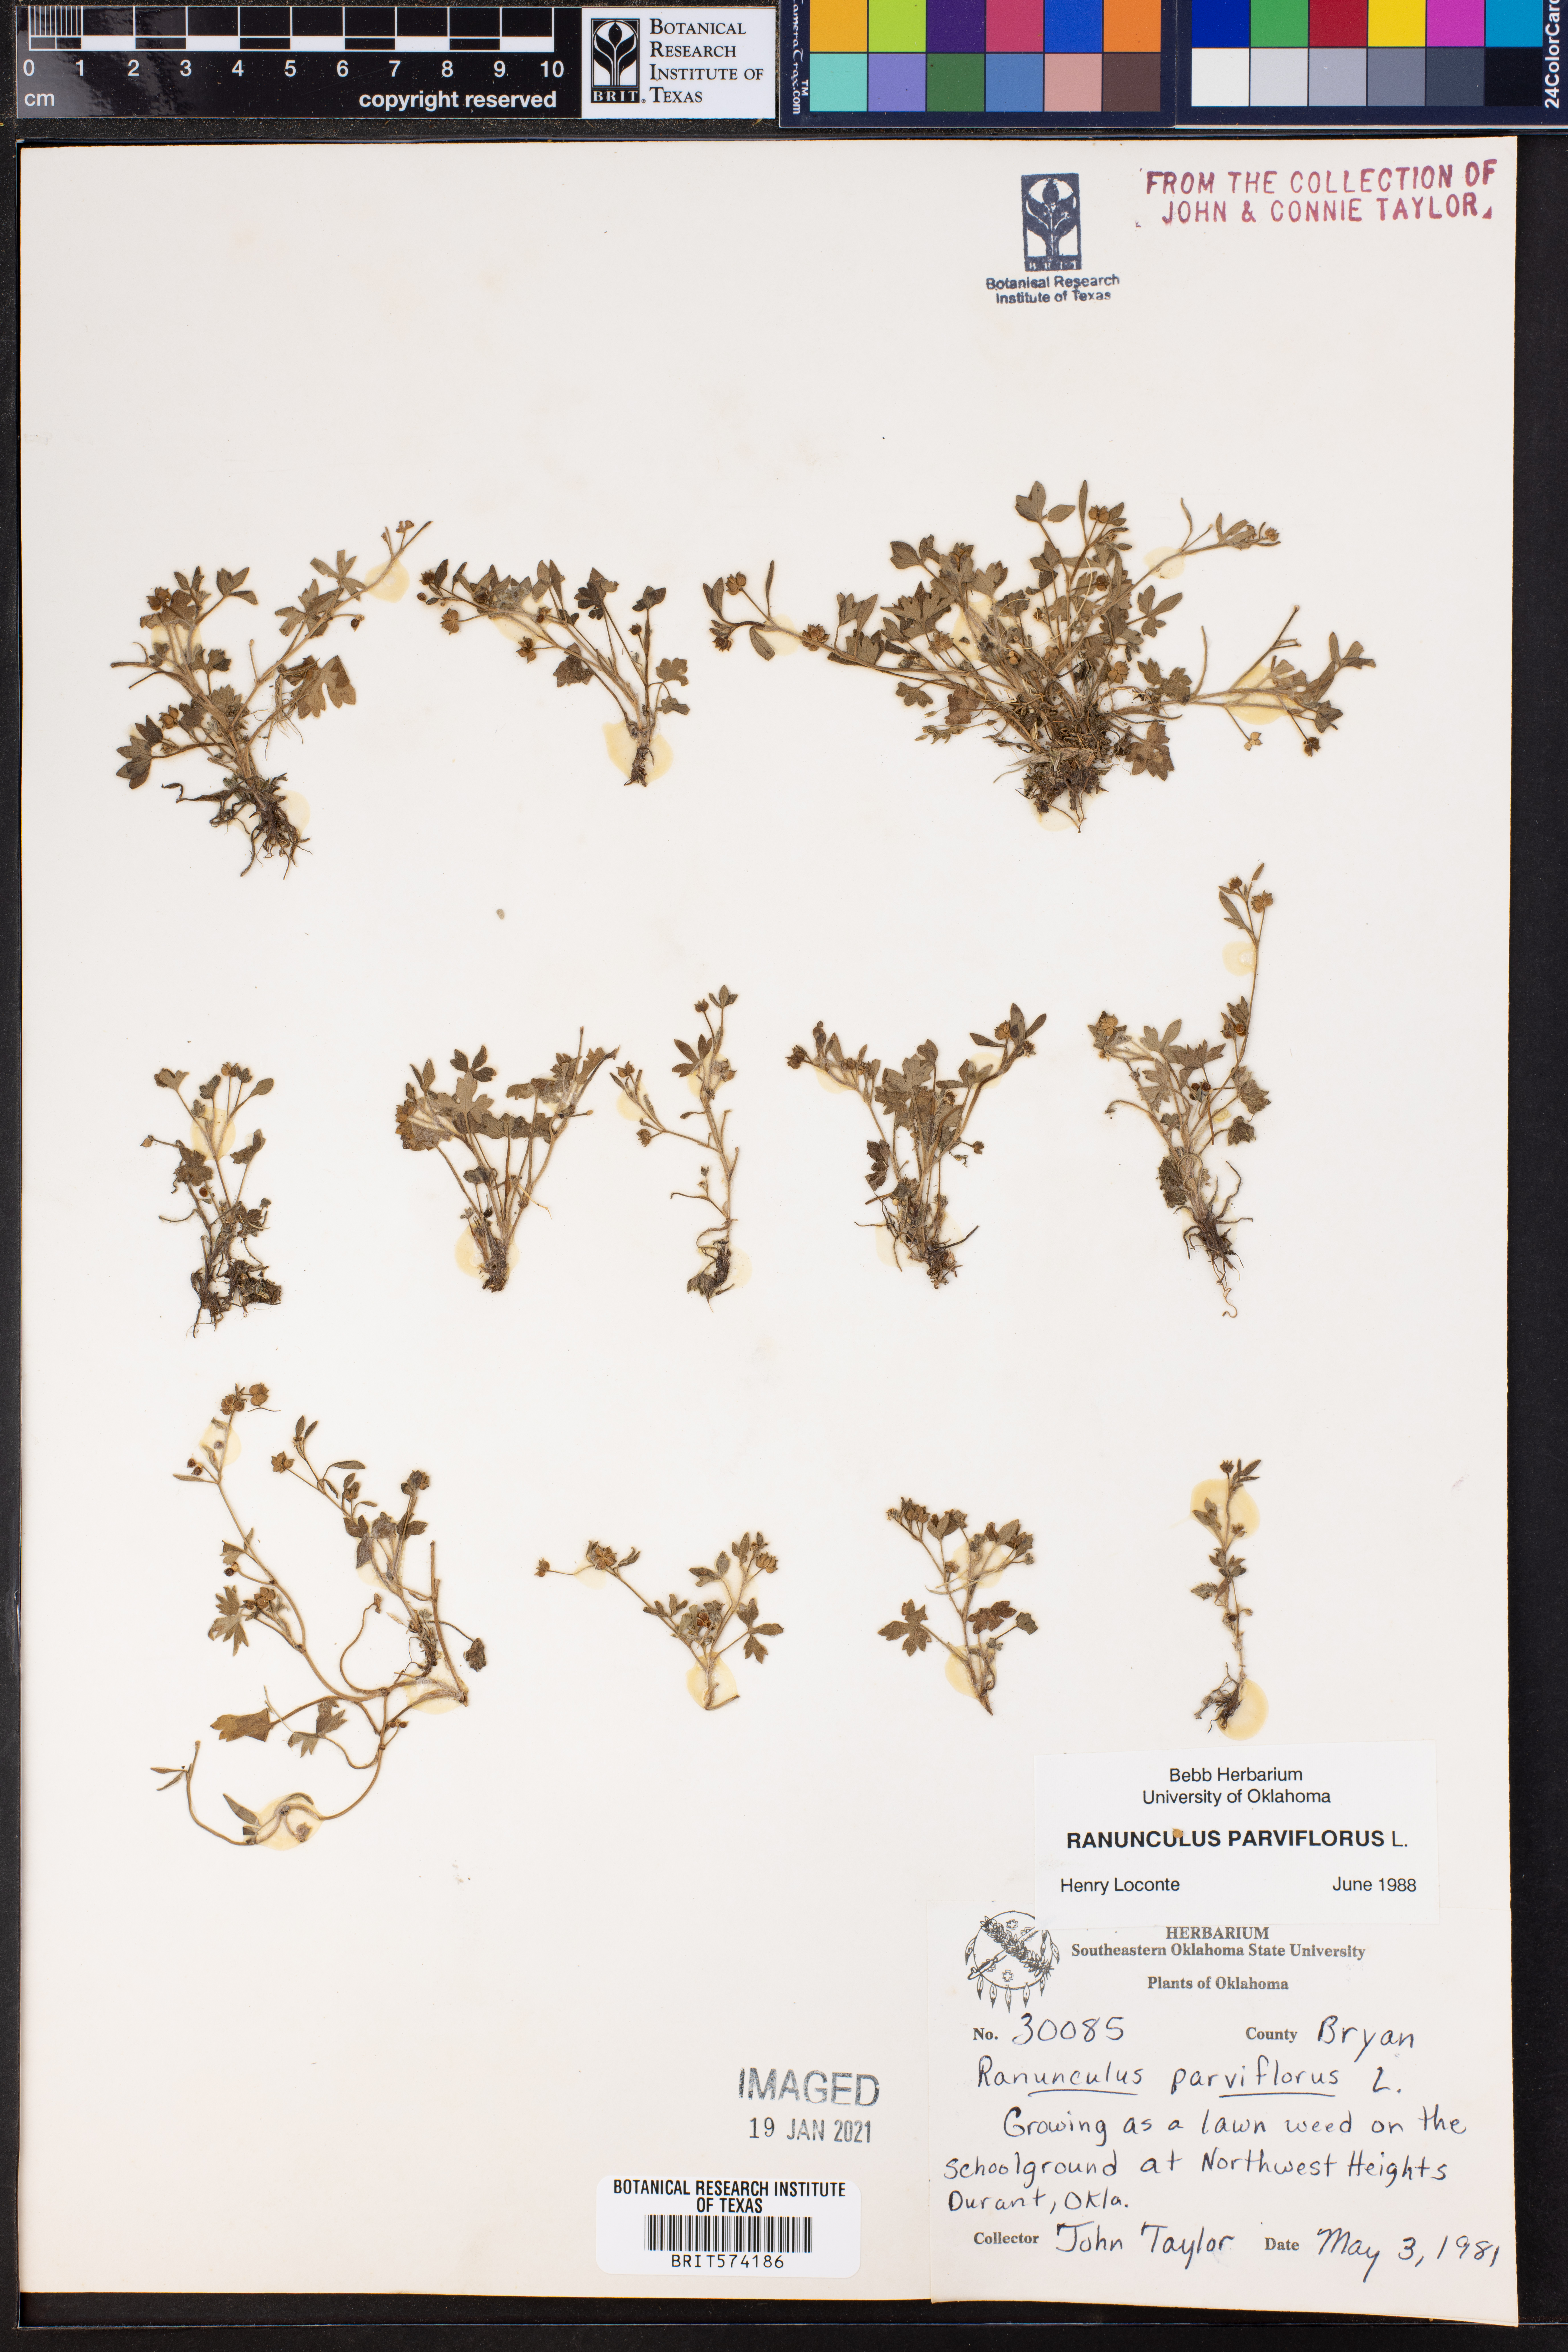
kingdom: Plantae
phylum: Tracheophyta
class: Magnoliopsida
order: Ranunculales
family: Ranunculaceae
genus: Ranunculus
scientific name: Ranunculus parviflorus
